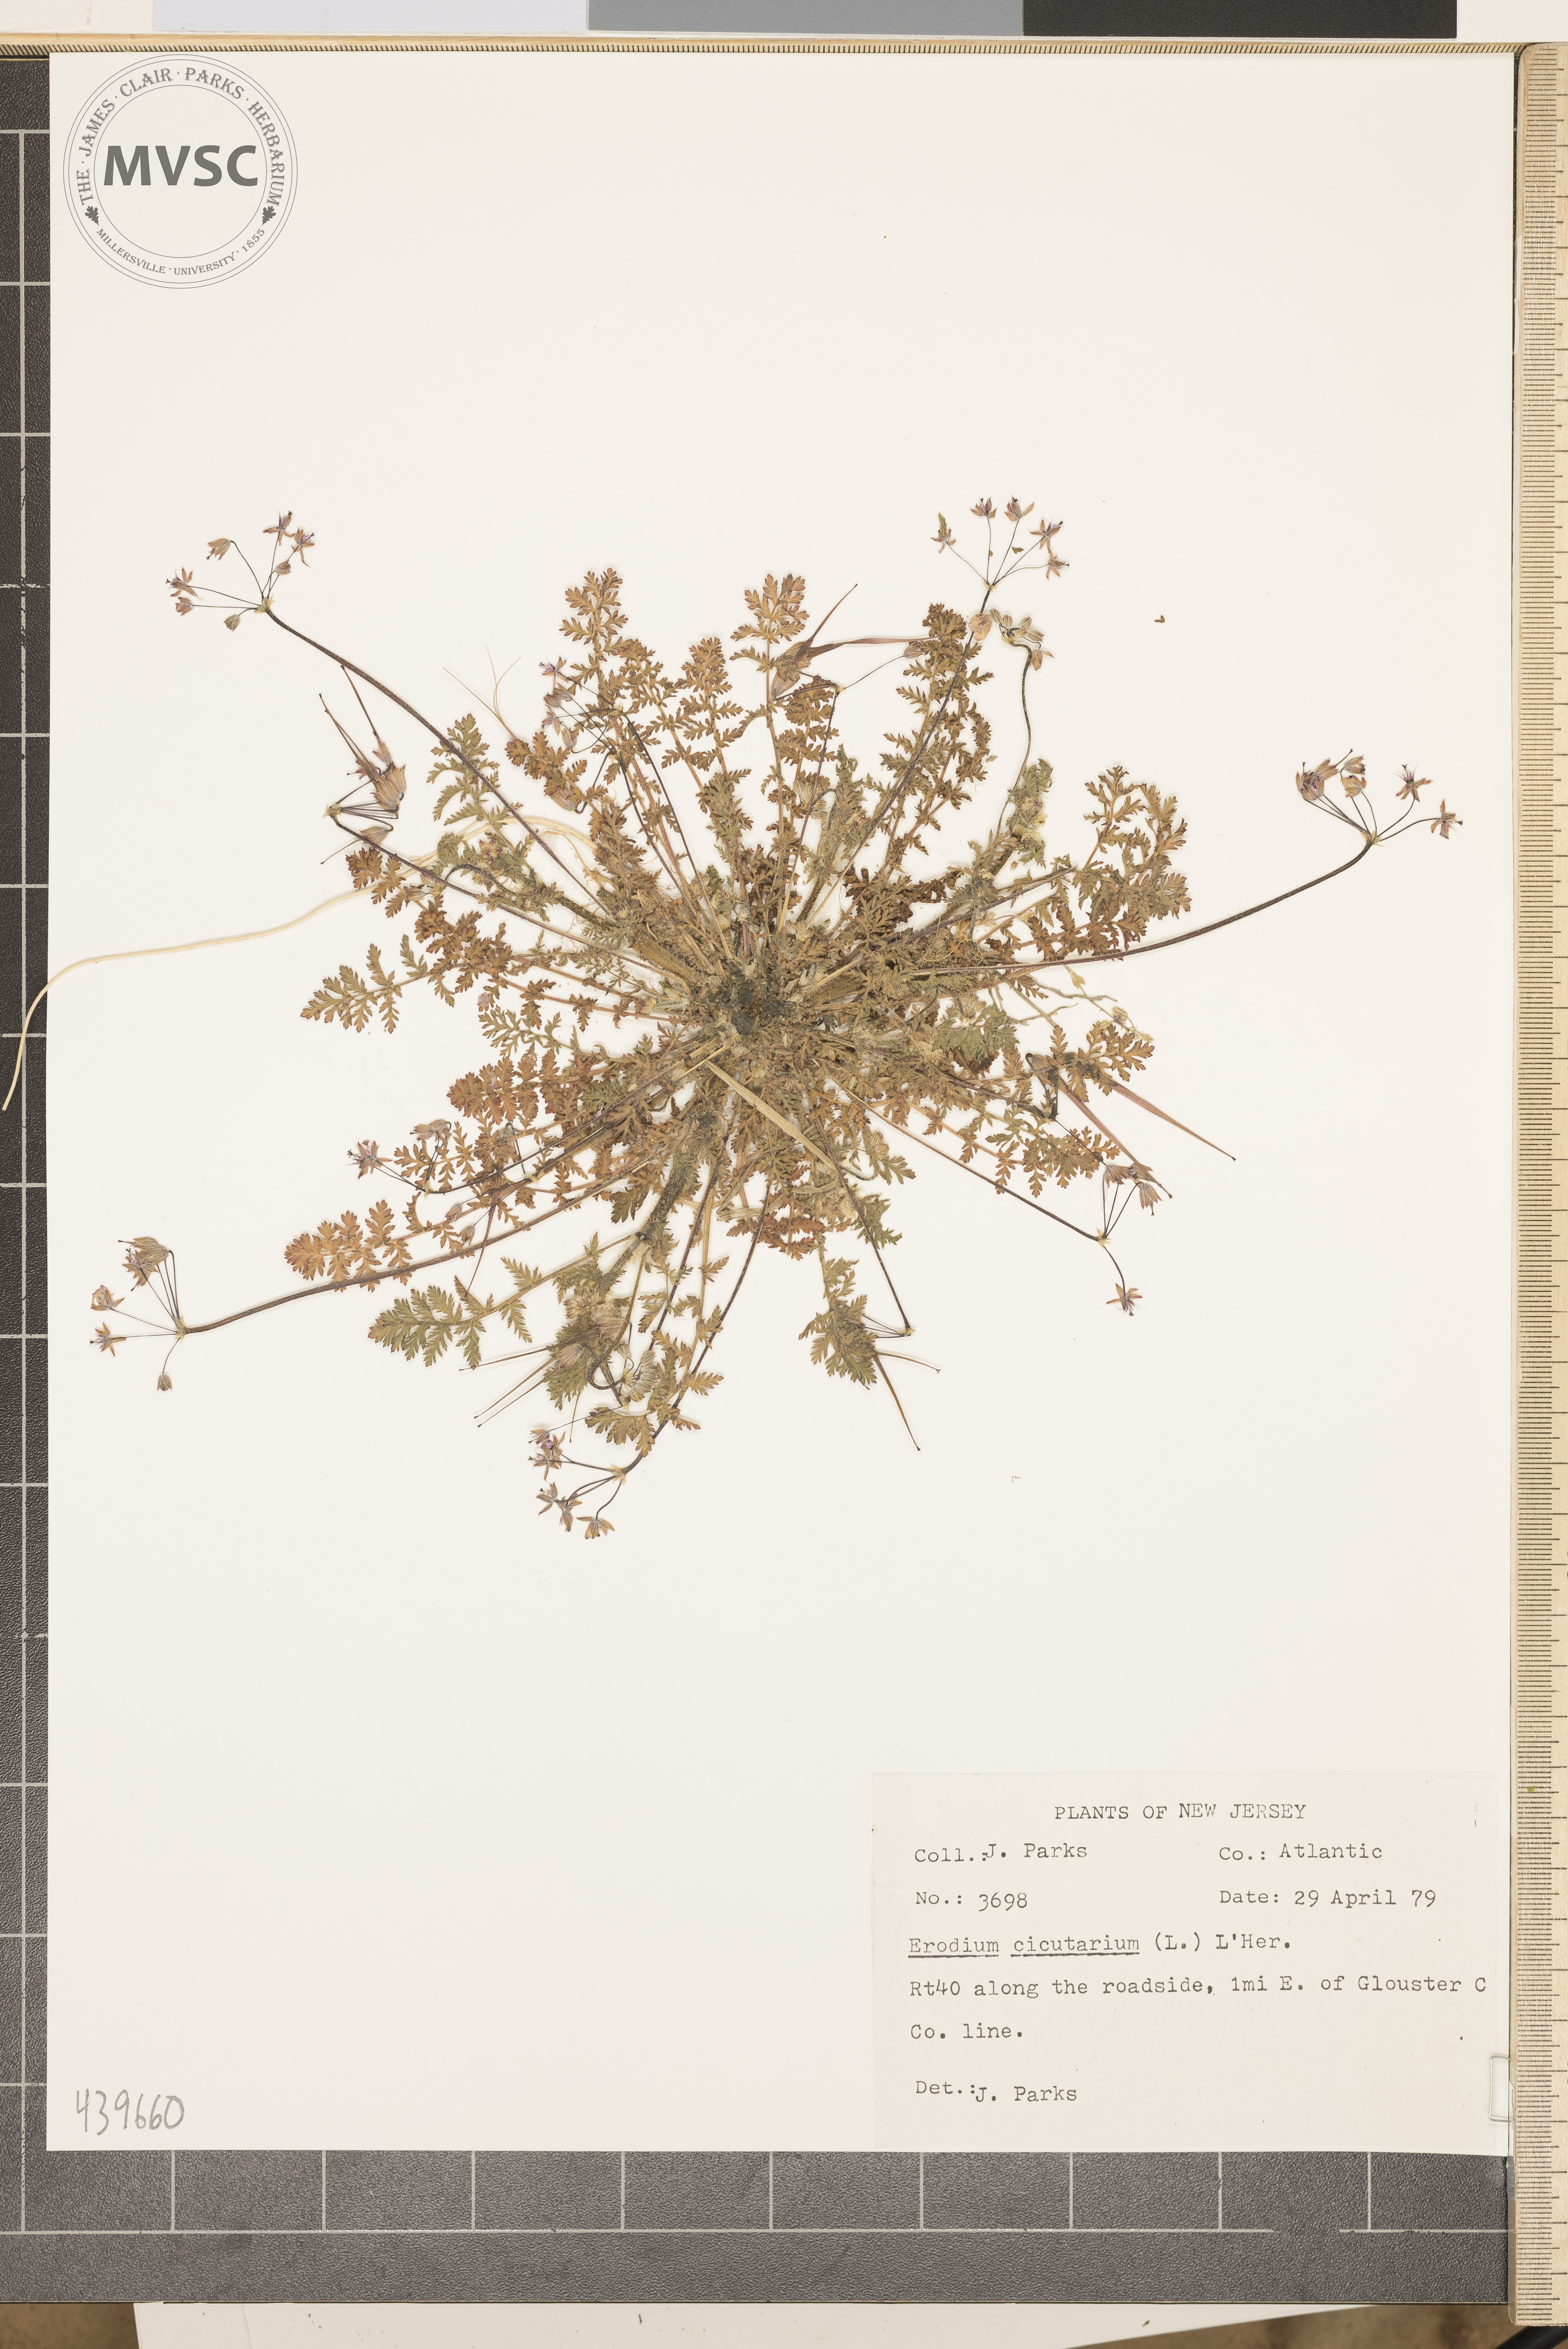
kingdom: Plantae
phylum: Tracheophyta
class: Magnoliopsida
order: Geraniales
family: Geraniaceae
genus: Erodium
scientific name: Erodium cicutarium
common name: Common stork's-bill
